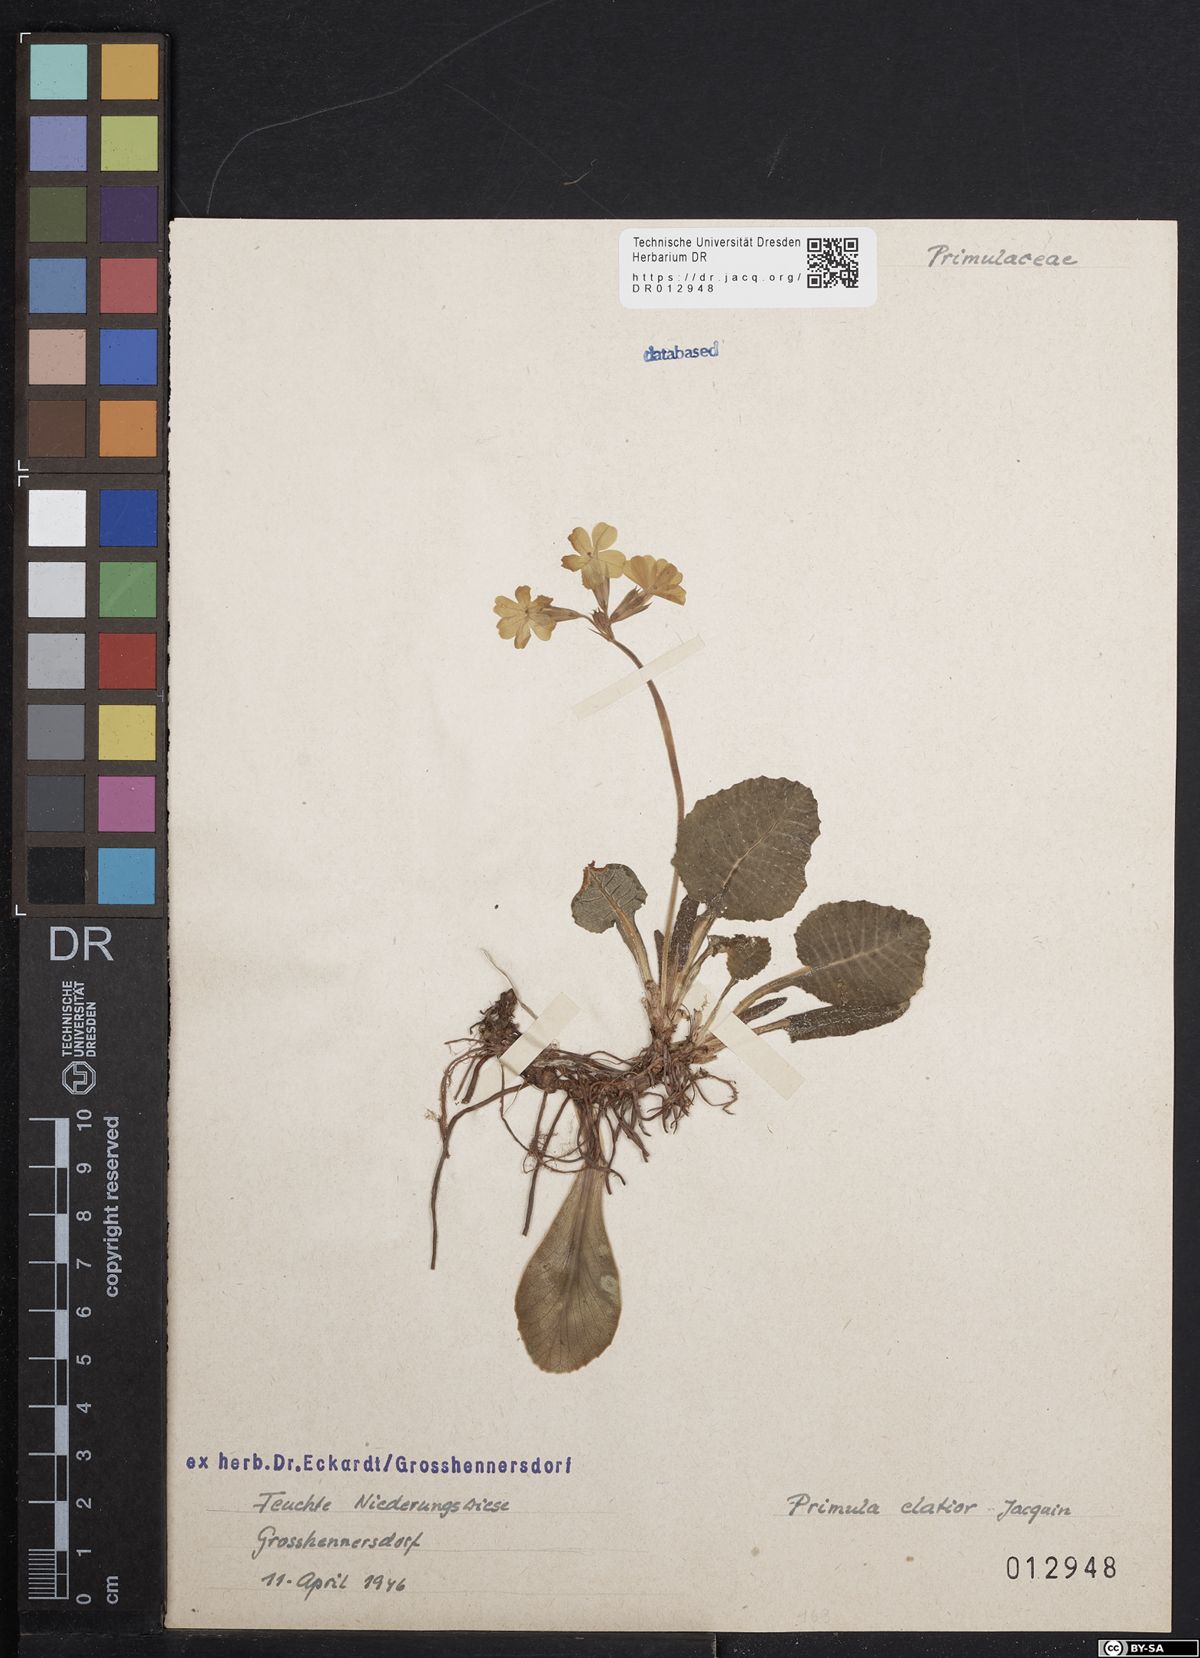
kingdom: Plantae
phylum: Tracheophyta
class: Magnoliopsida
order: Ericales
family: Primulaceae
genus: Primula
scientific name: Primula elatior
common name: Oxlip
